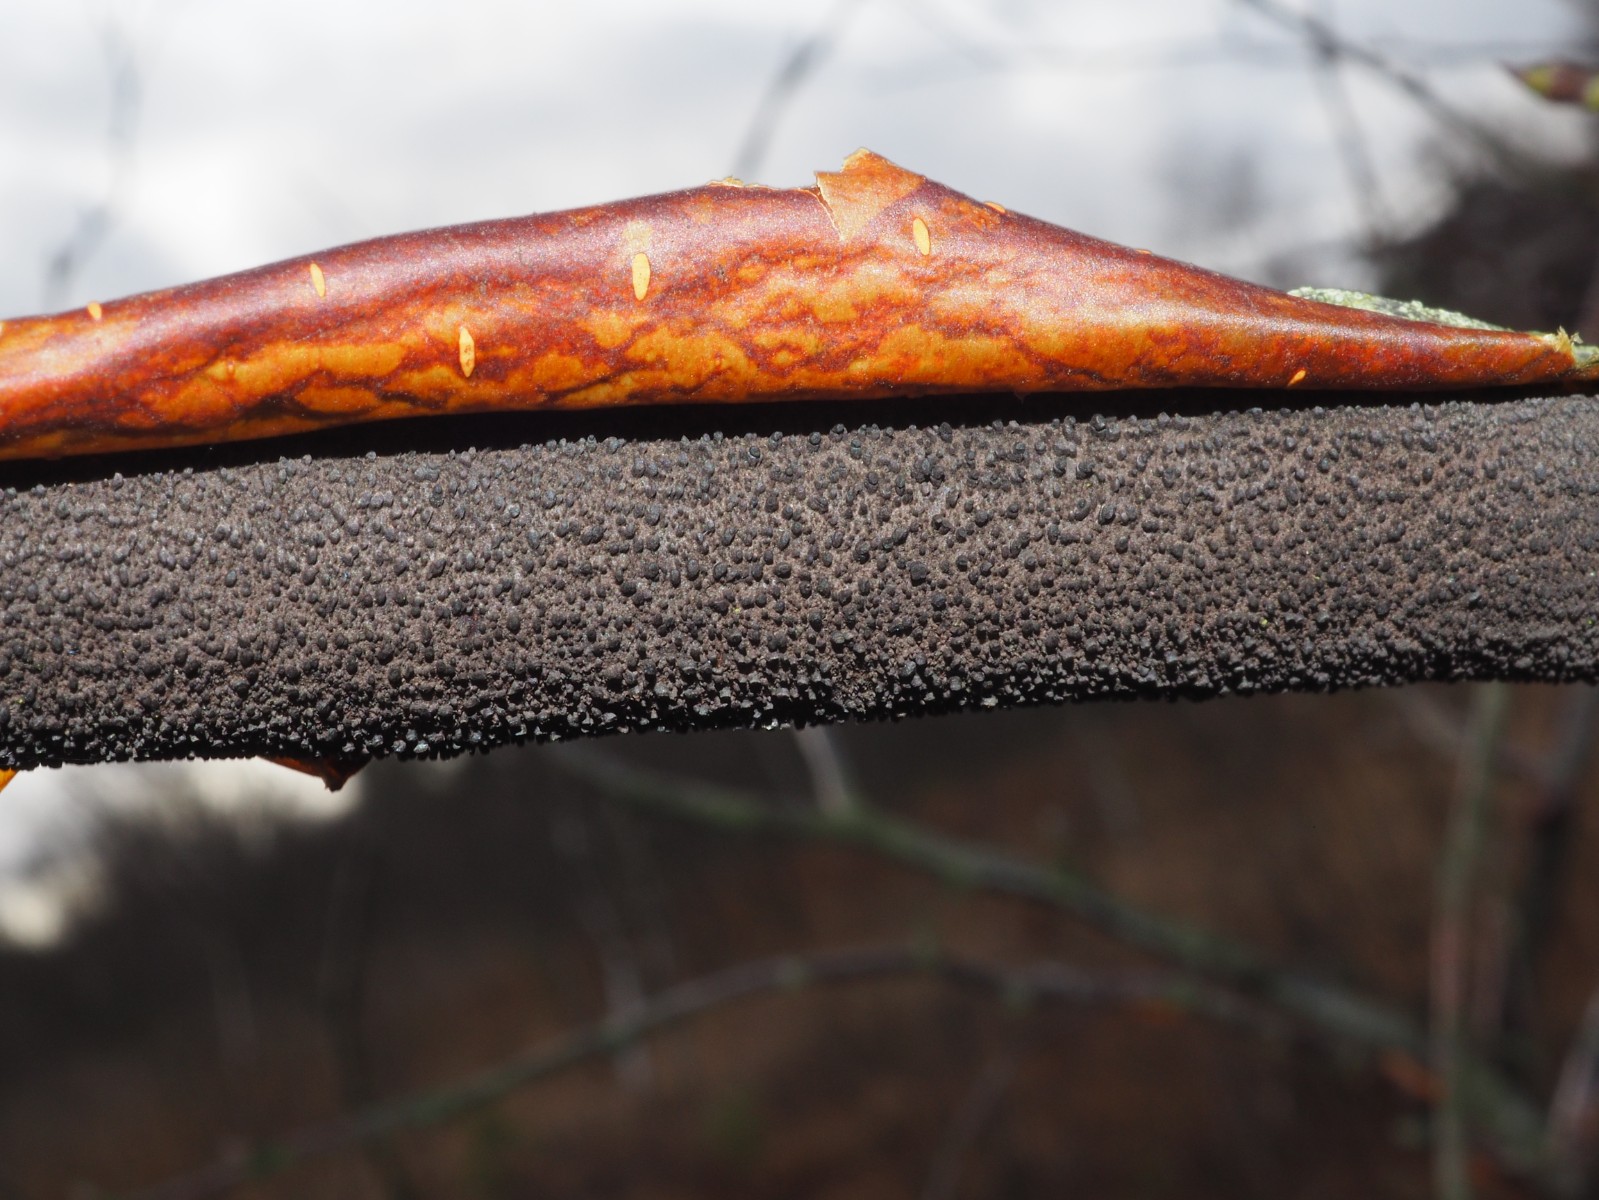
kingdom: Fungi
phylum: Ascomycota
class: Sordariomycetes
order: Diaporthales
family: Gnomoniaceae
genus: Xenotypa
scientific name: Xenotypa aterrima
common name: Birch bark stripper
